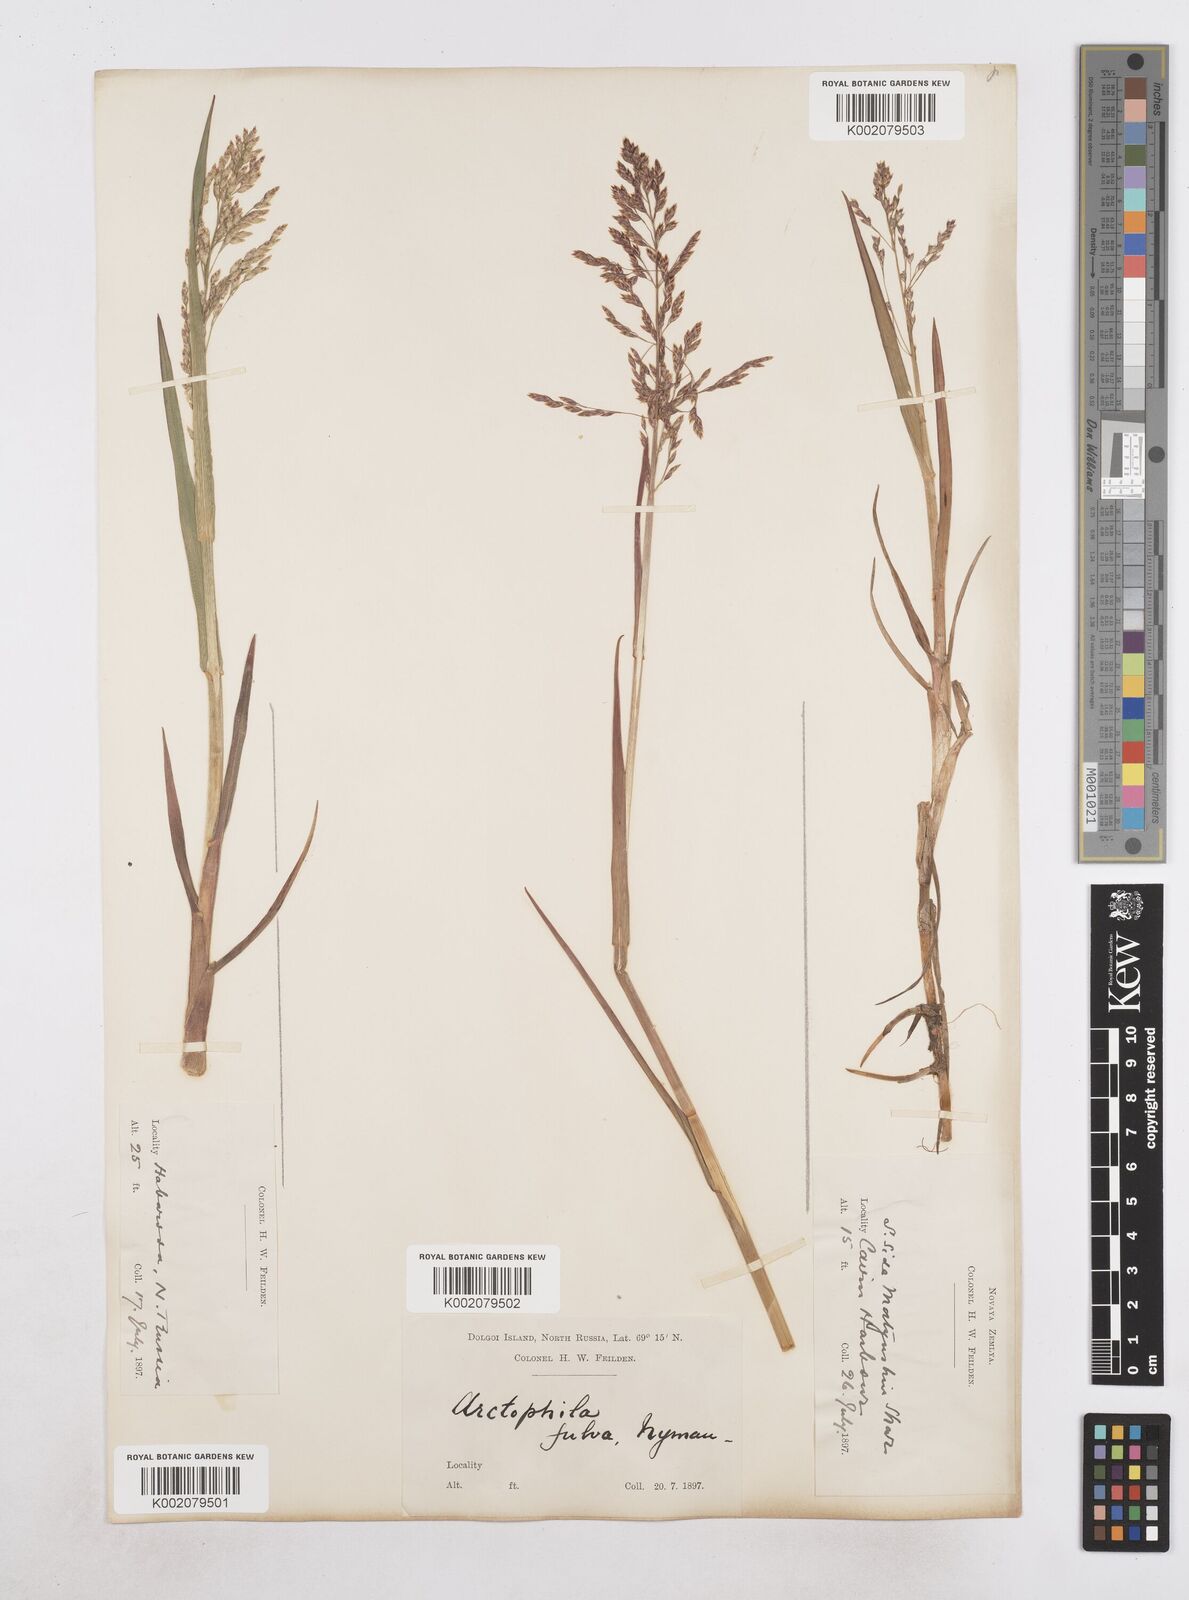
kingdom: Plantae
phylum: Tracheophyta
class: Liliopsida
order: Poales
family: Poaceae
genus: Dupontia
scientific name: Dupontia fulva
